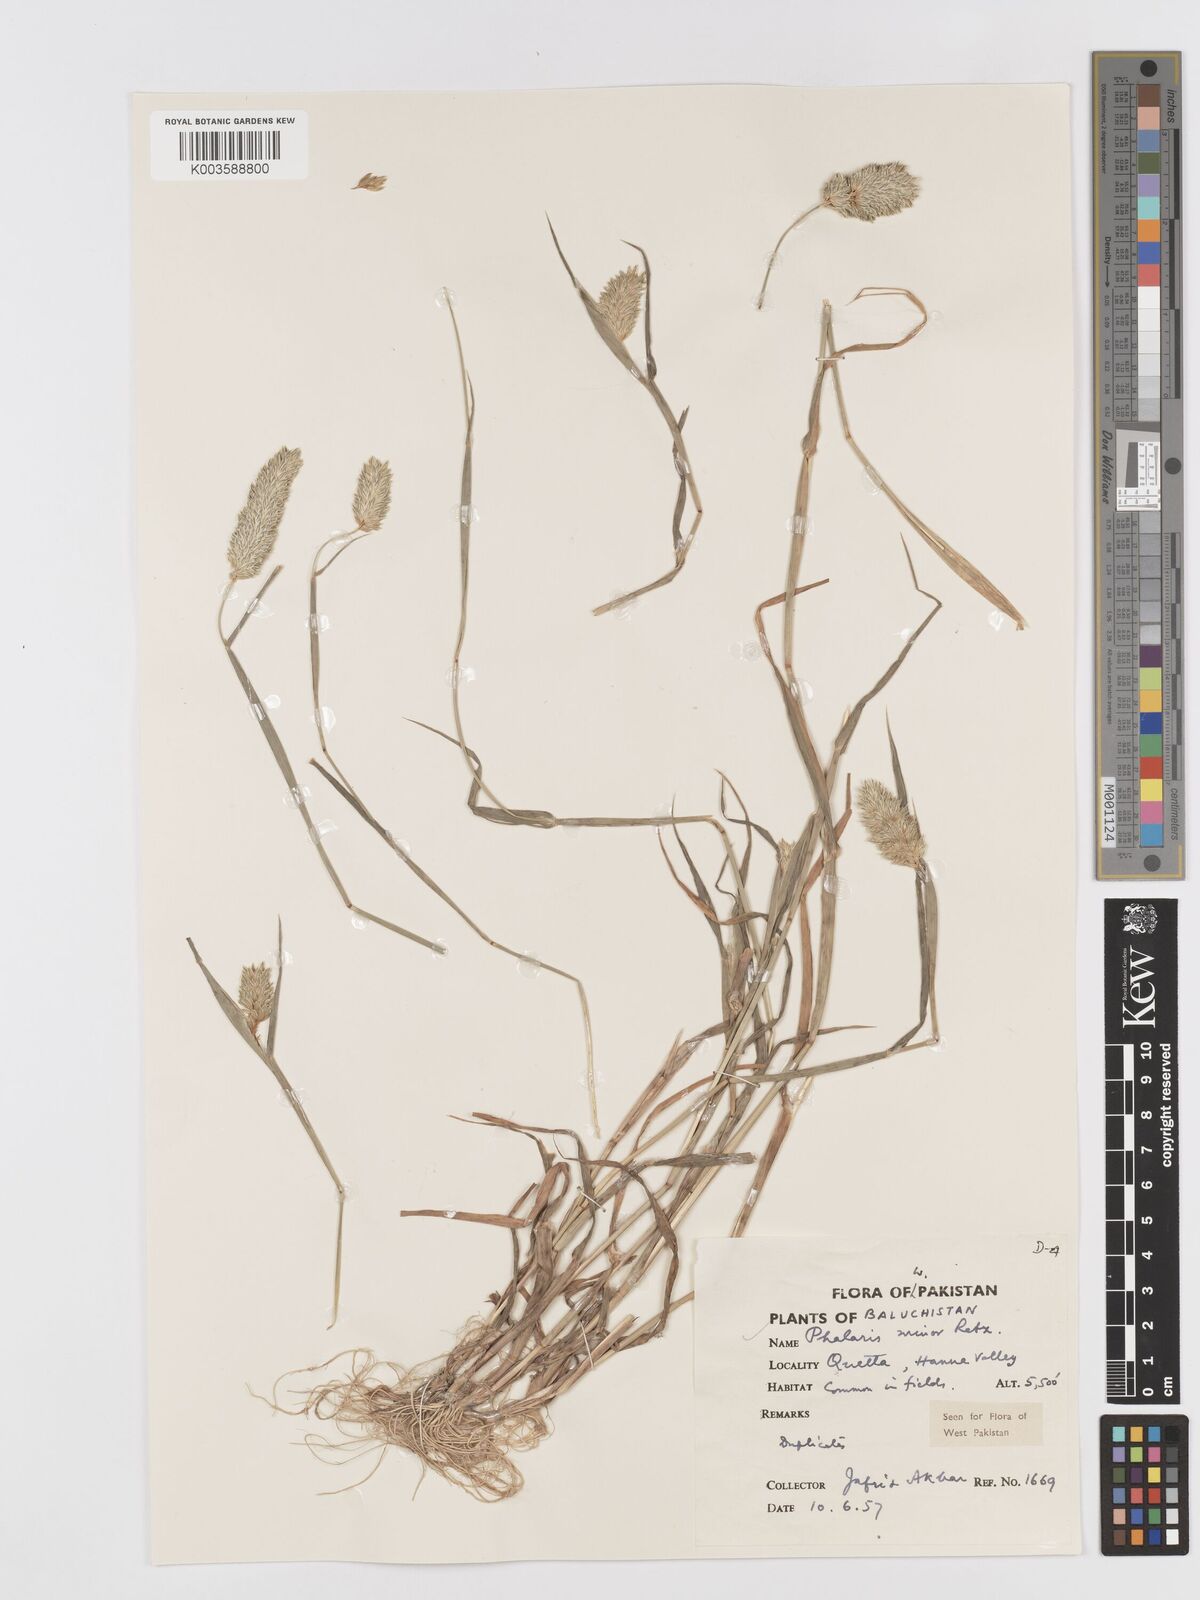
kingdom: Plantae
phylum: Tracheophyta
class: Liliopsida
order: Poales
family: Poaceae
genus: Phalaris
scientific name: Phalaris minor
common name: Littleseed canarygrass
